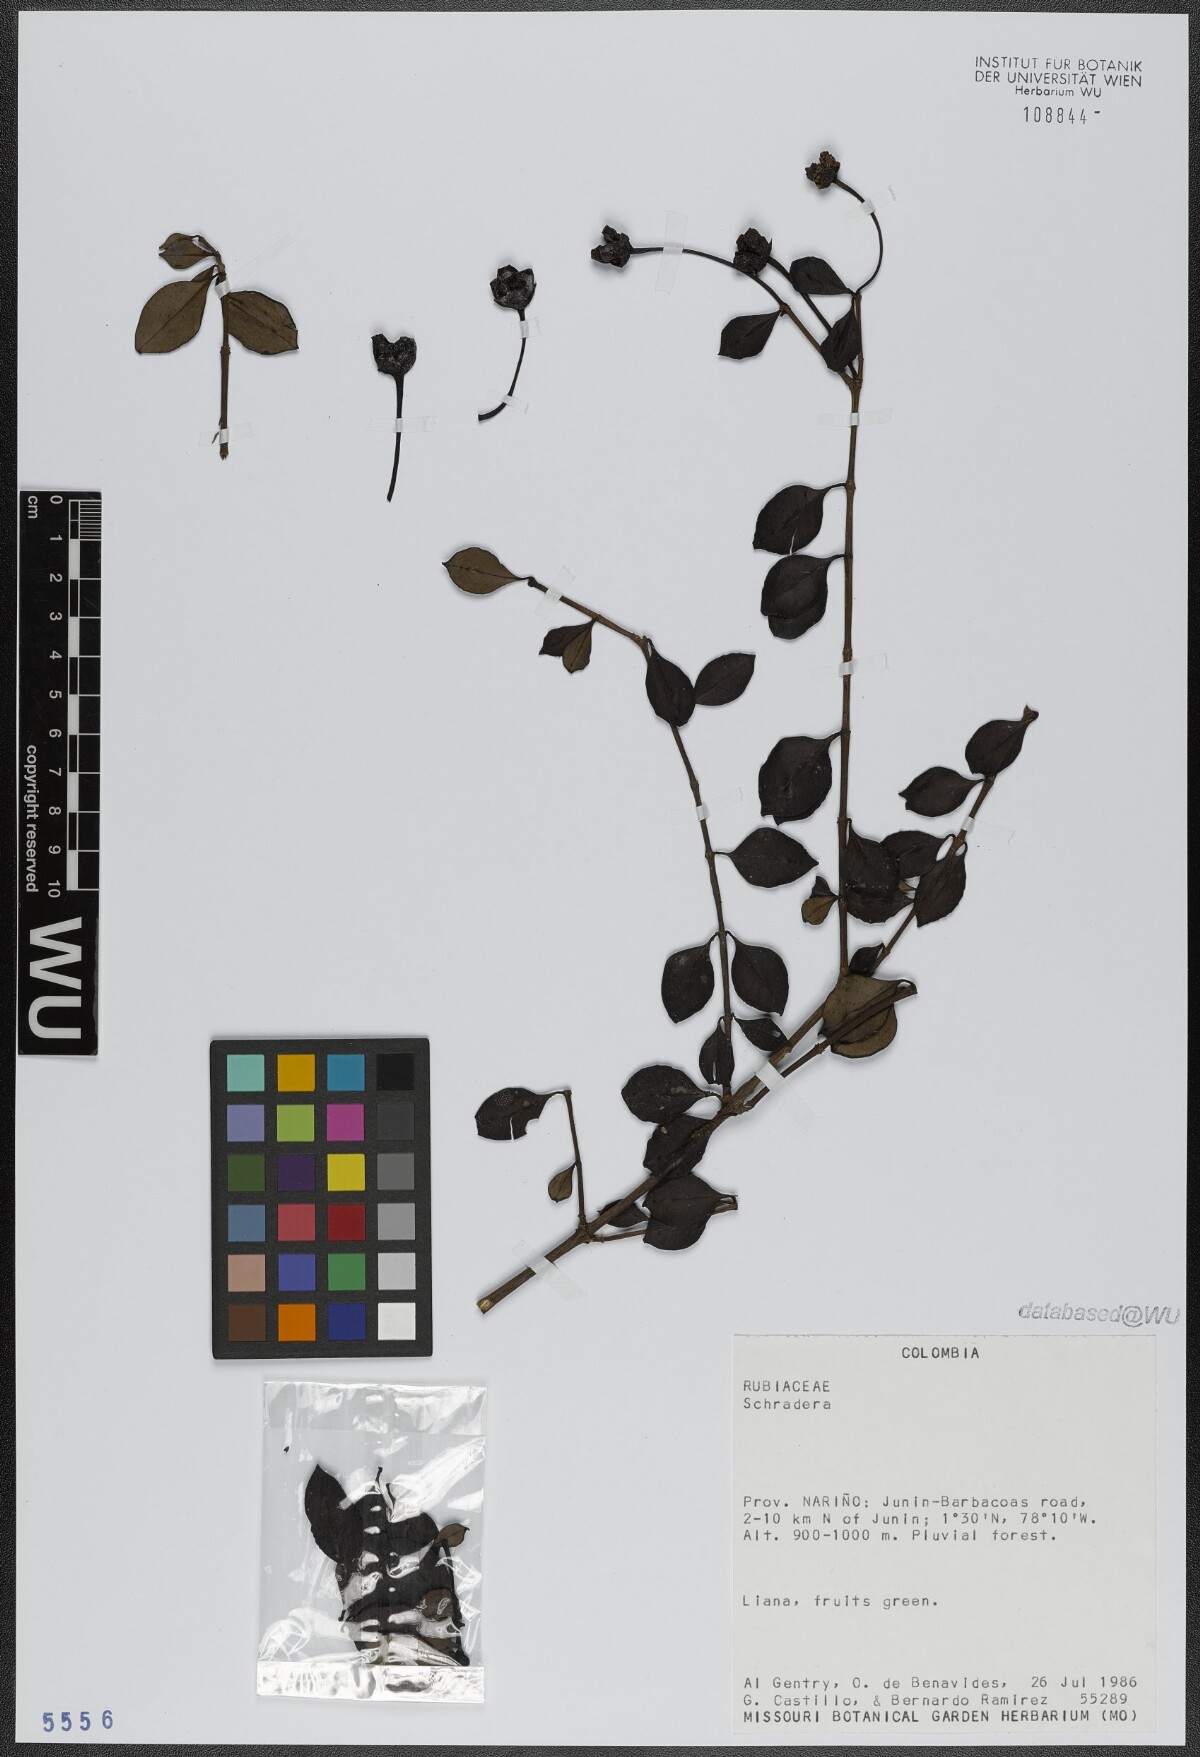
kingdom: Plantae
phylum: Tracheophyta
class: Magnoliopsida
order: Gentianales
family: Rubiaceae
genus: Schradera
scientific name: Schradera
